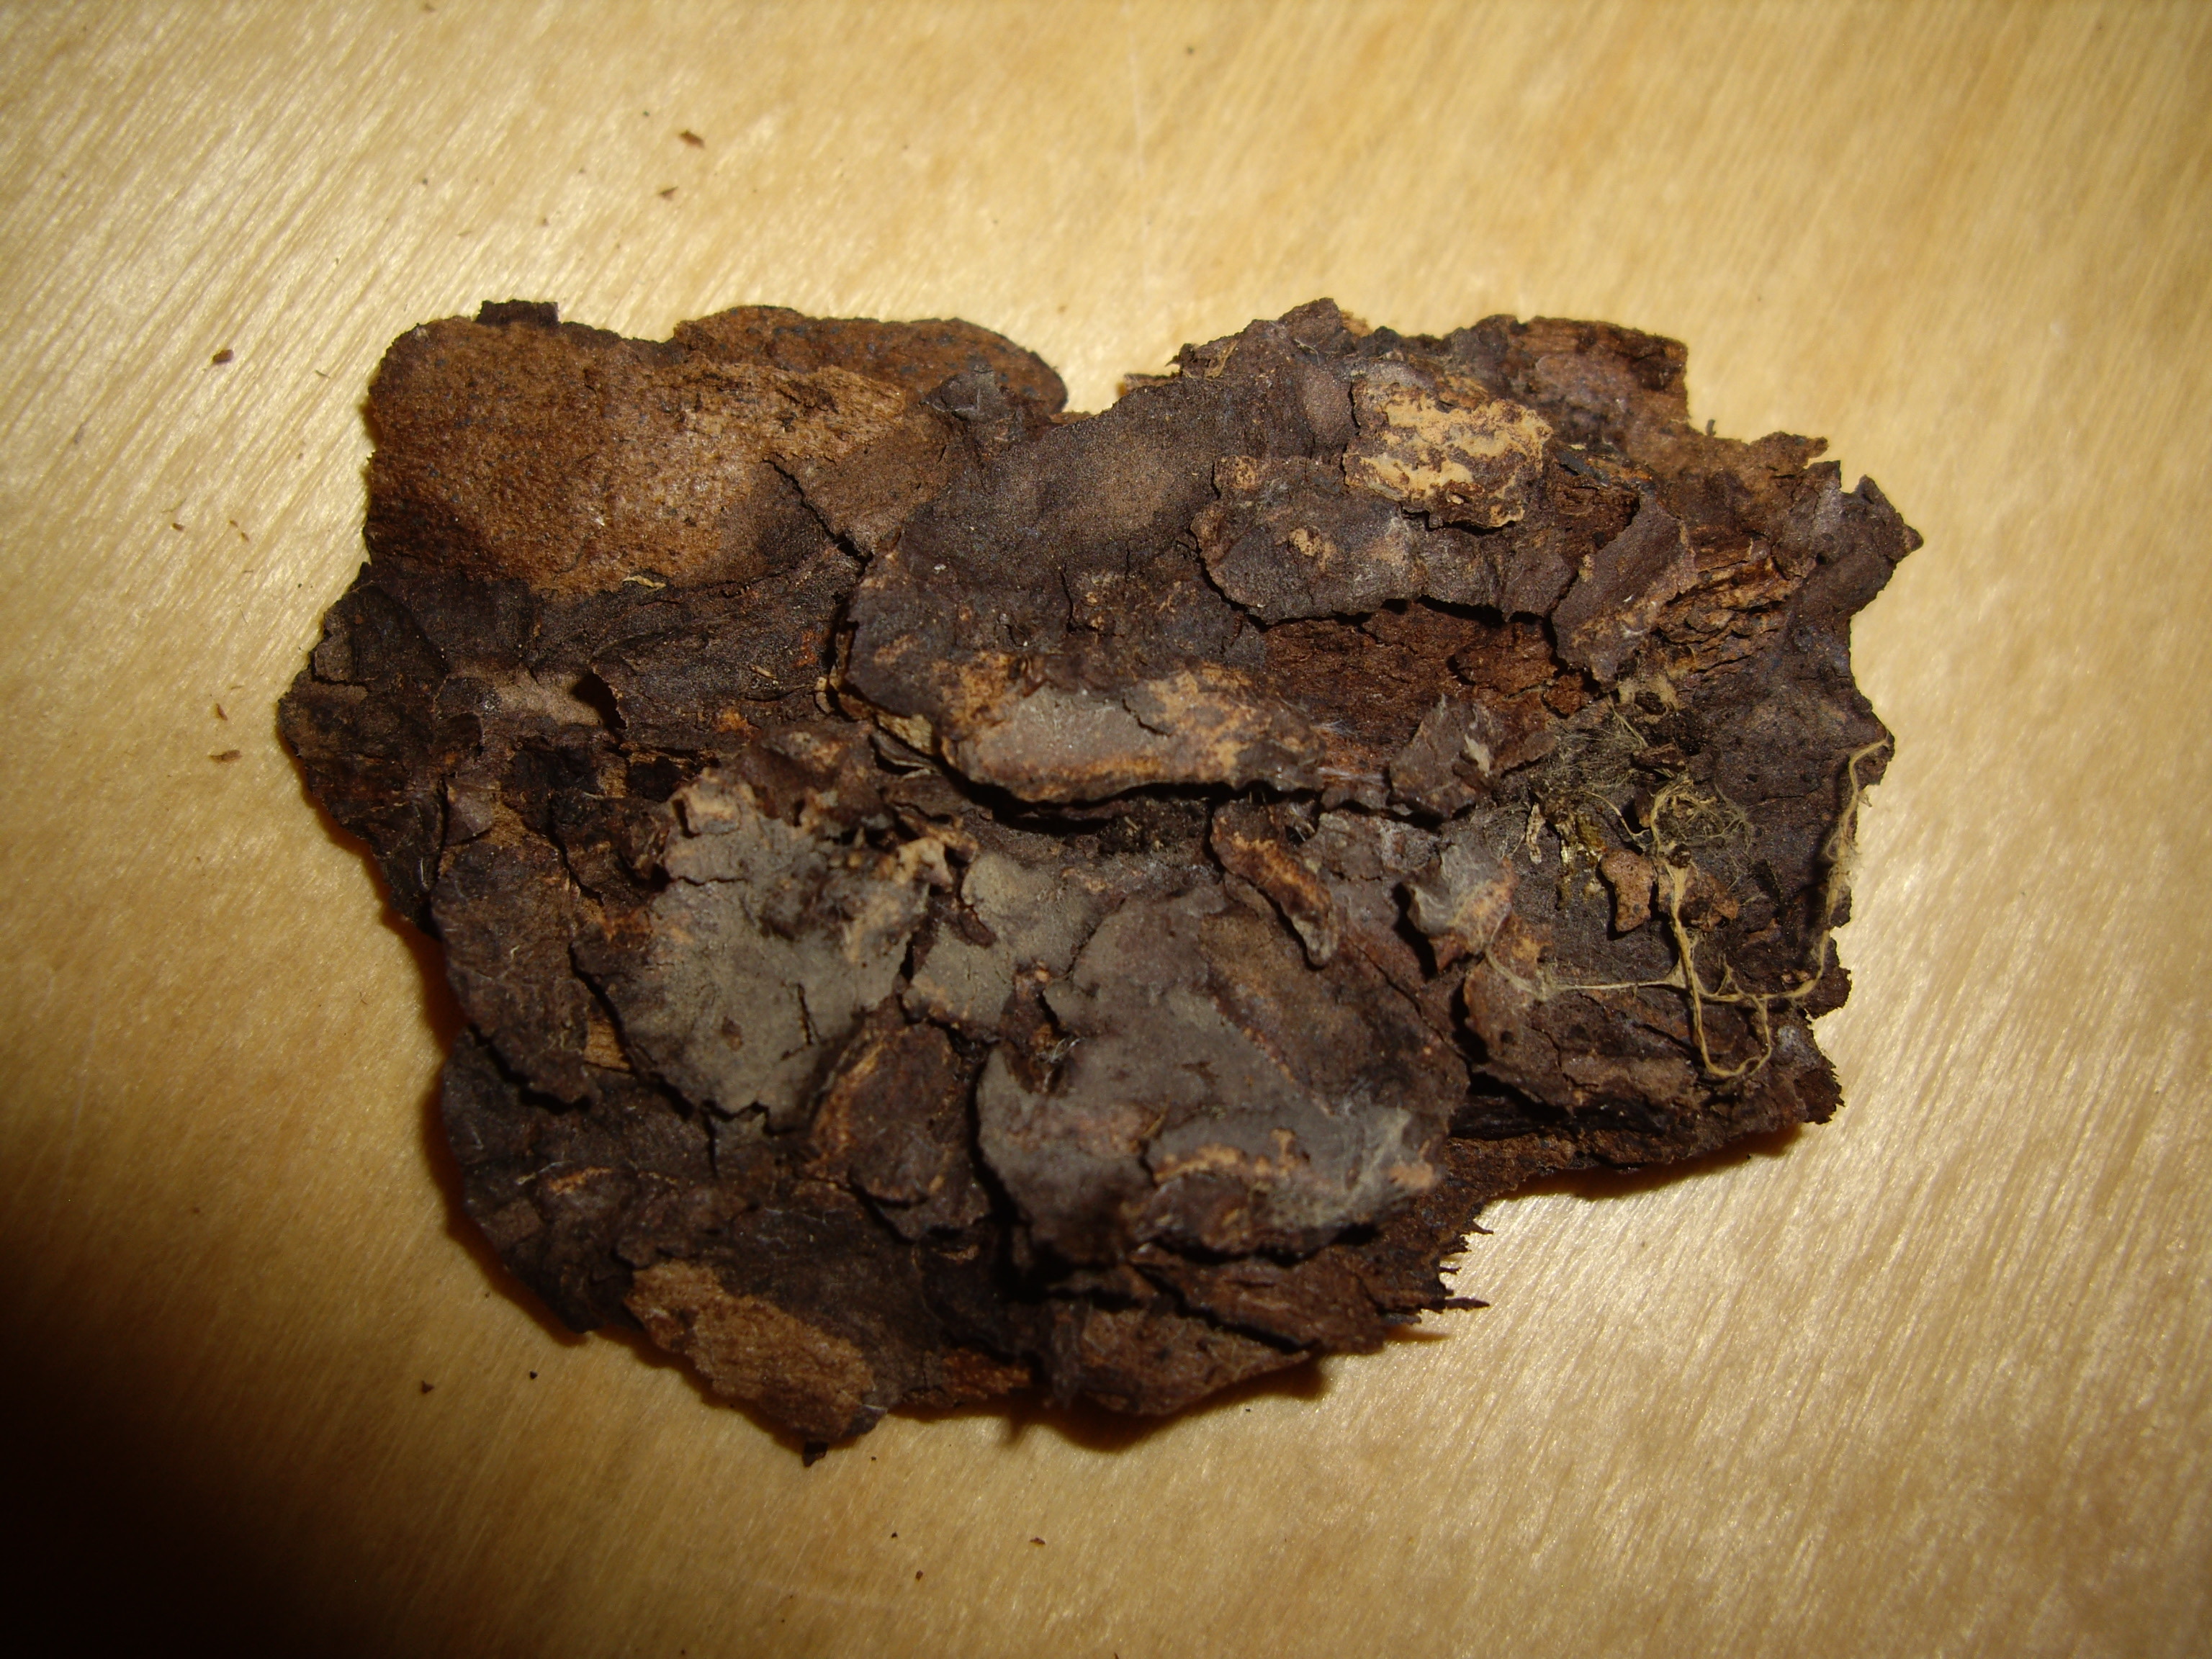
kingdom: Fungi
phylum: Basidiomycota
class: Agaricomycetes
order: Trechisporales
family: Sistotremataceae
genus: Trechispora
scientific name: Trechispora minima
